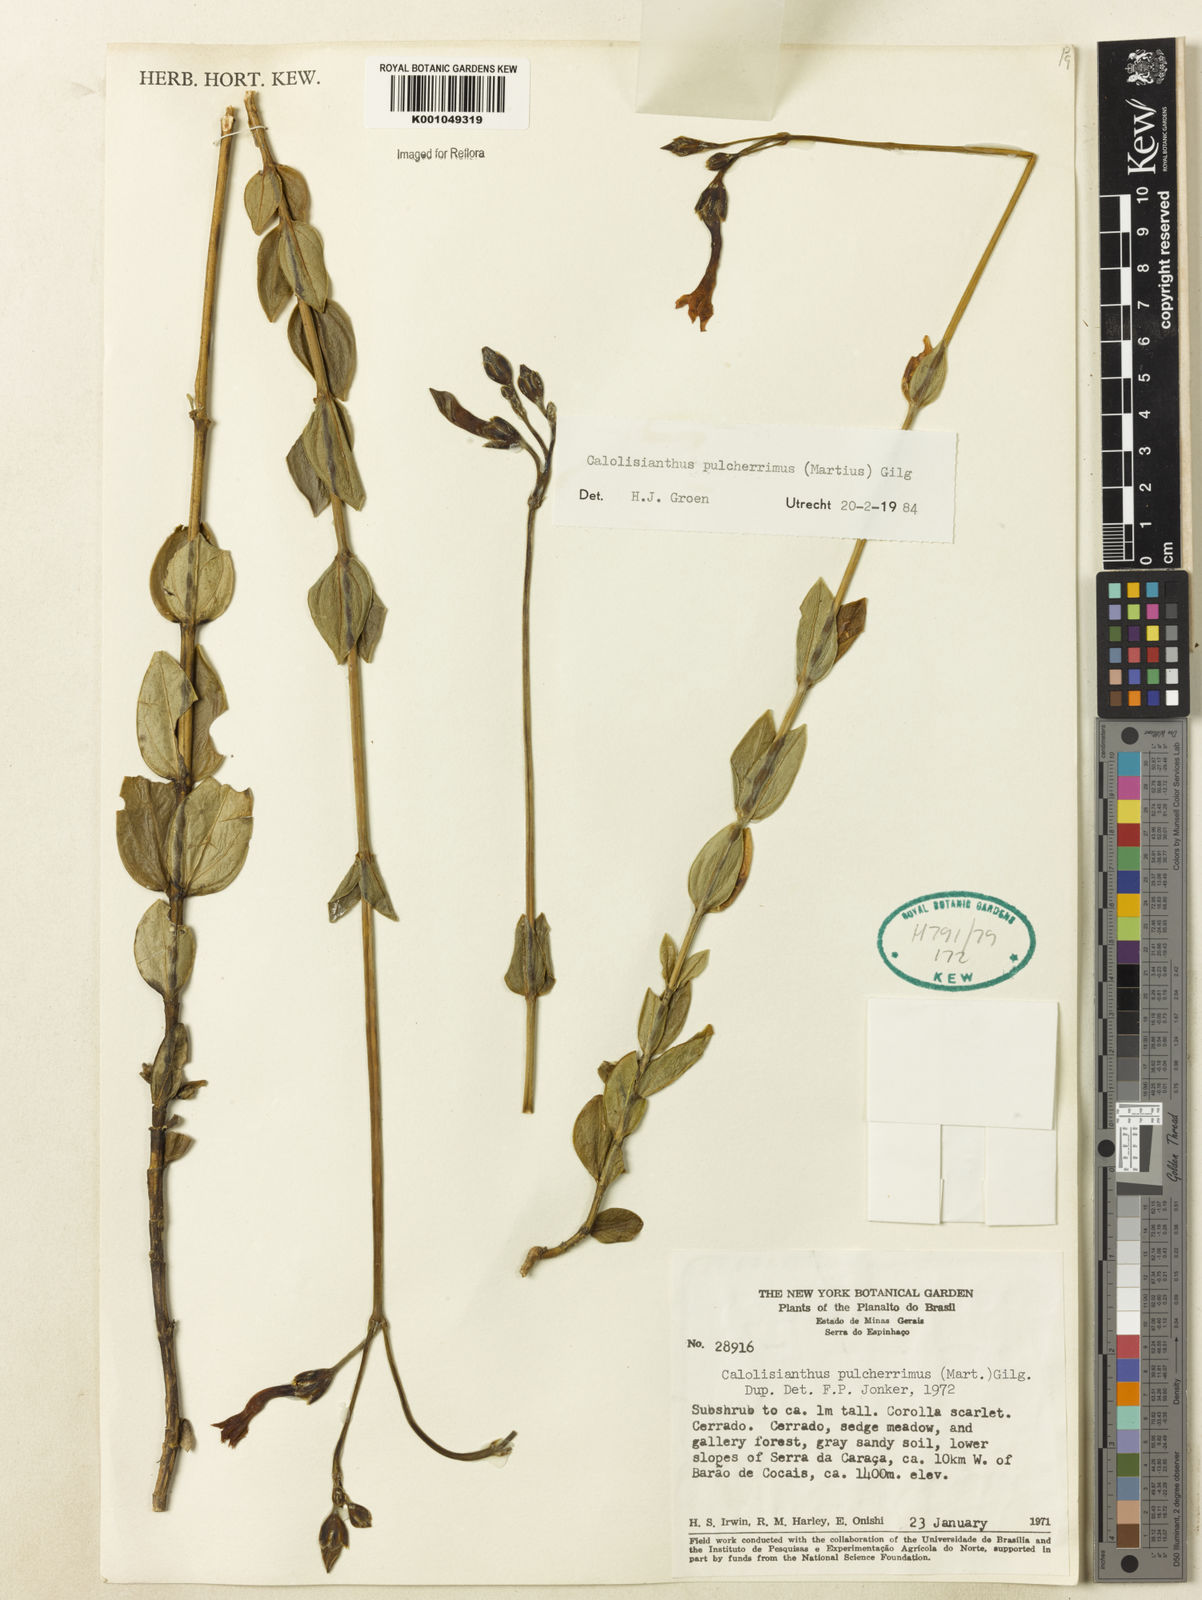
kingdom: Plantae
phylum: Tracheophyta
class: Magnoliopsida
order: Gentianales
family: Gentianaceae
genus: Calolisianthus
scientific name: Calolisianthus pulcherrimus
